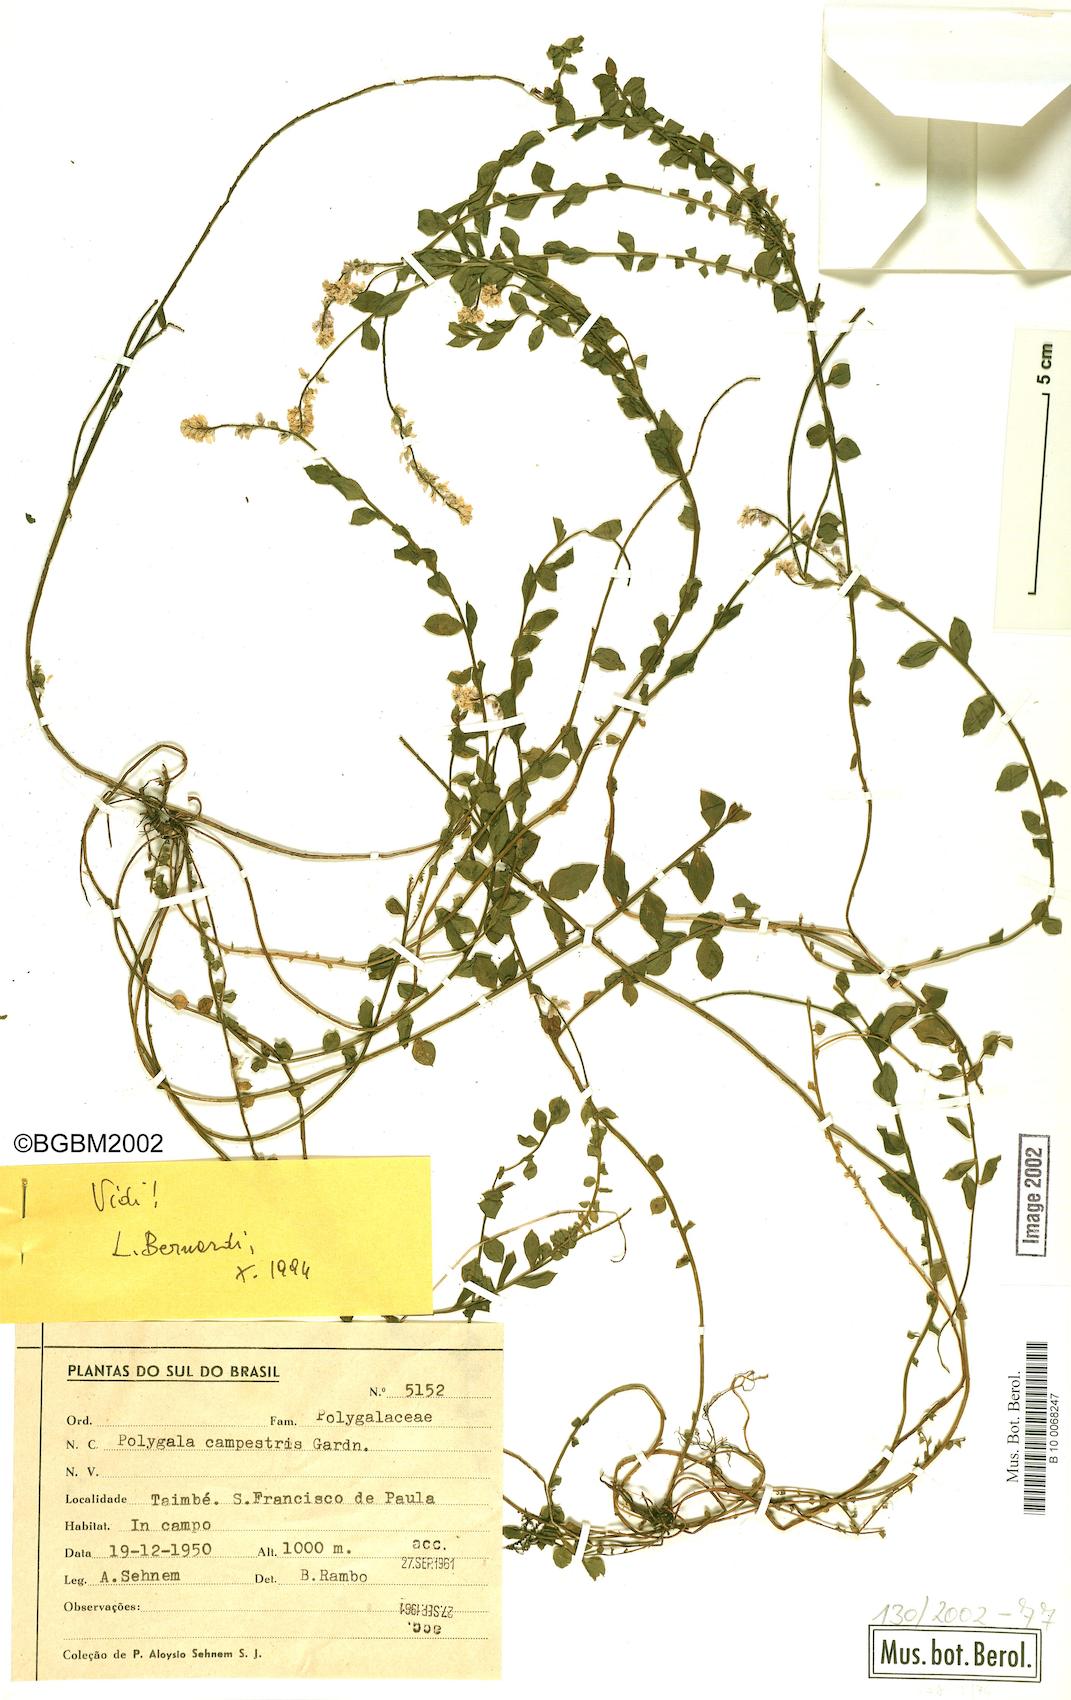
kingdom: Plantae
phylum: Tracheophyta
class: Magnoliopsida
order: Fabales
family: Polygalaceae
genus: Polygala
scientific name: Polygala campestris
